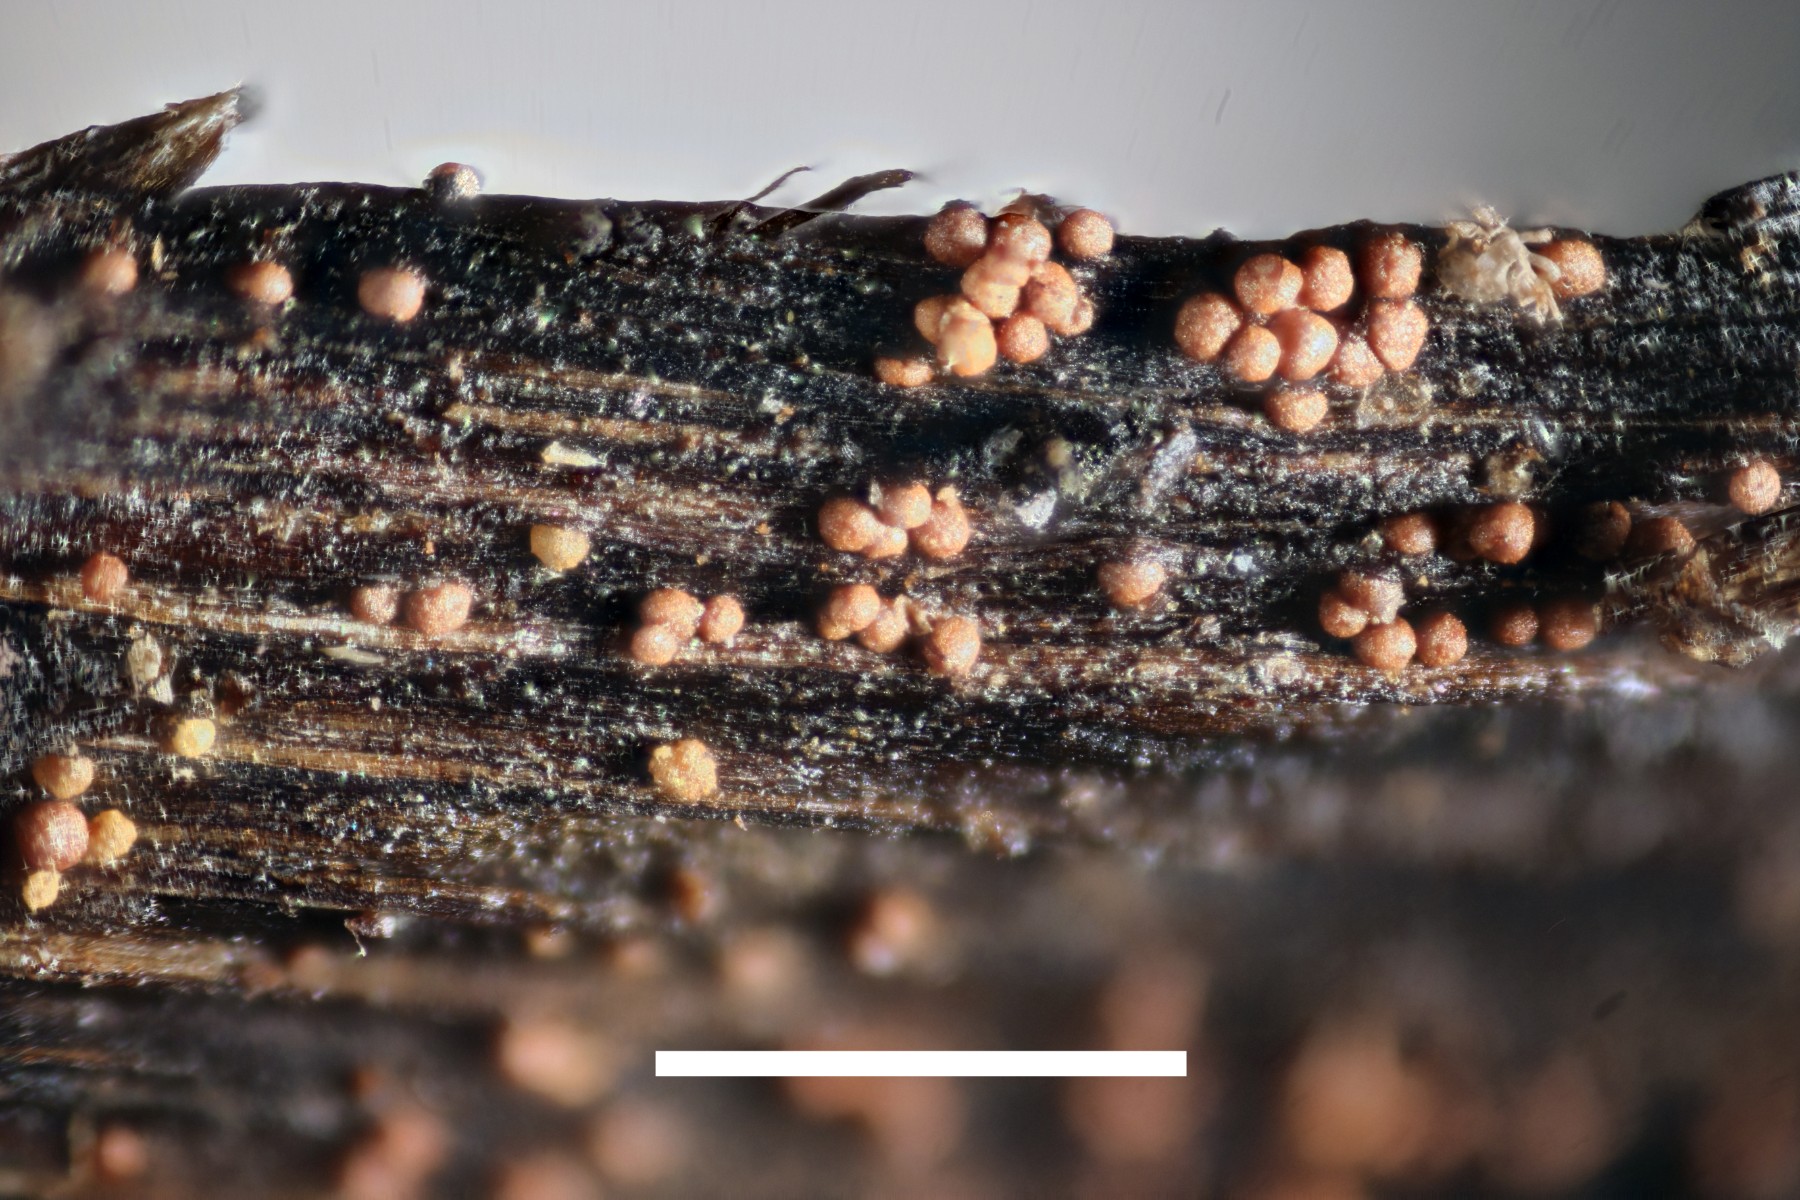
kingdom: Fungi
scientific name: Fungi
